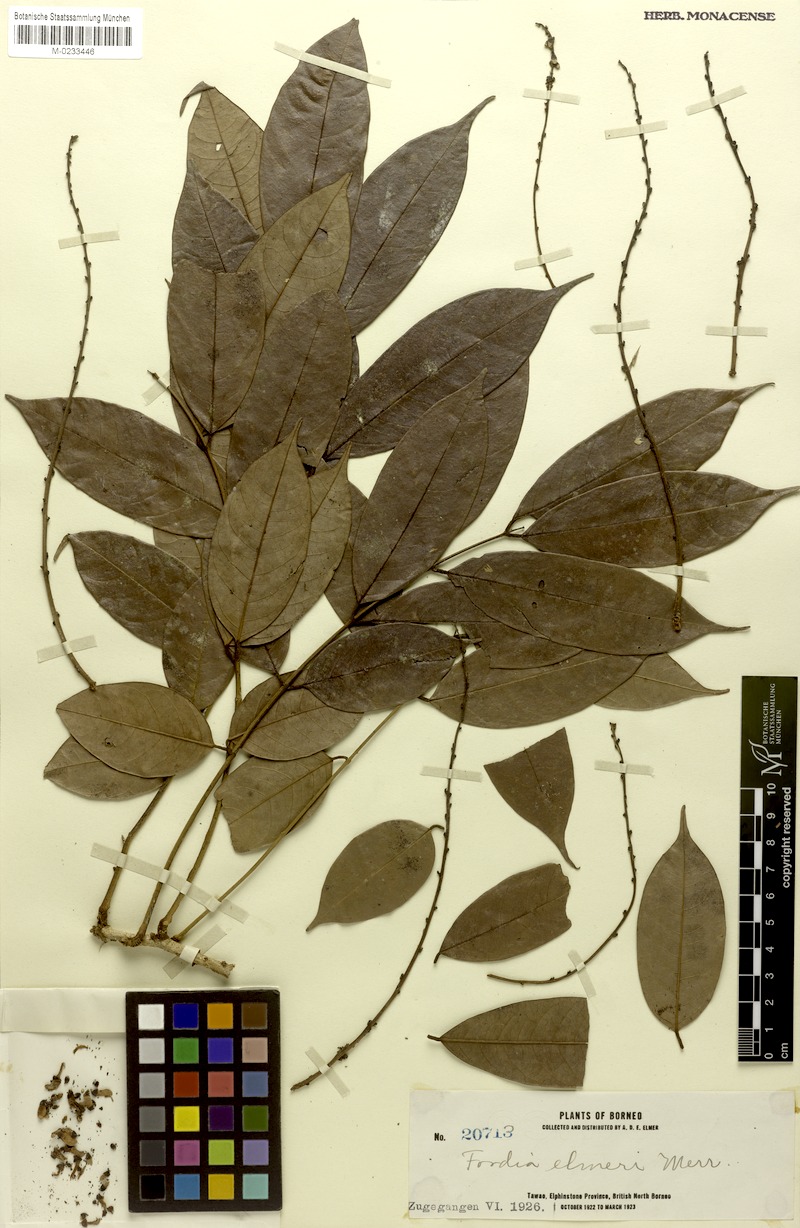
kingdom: Plantae
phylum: Tracheophyta
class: Magnoliopsida
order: Fabales
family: Fabaceae
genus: Fordia
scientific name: Fordia splendidissima
